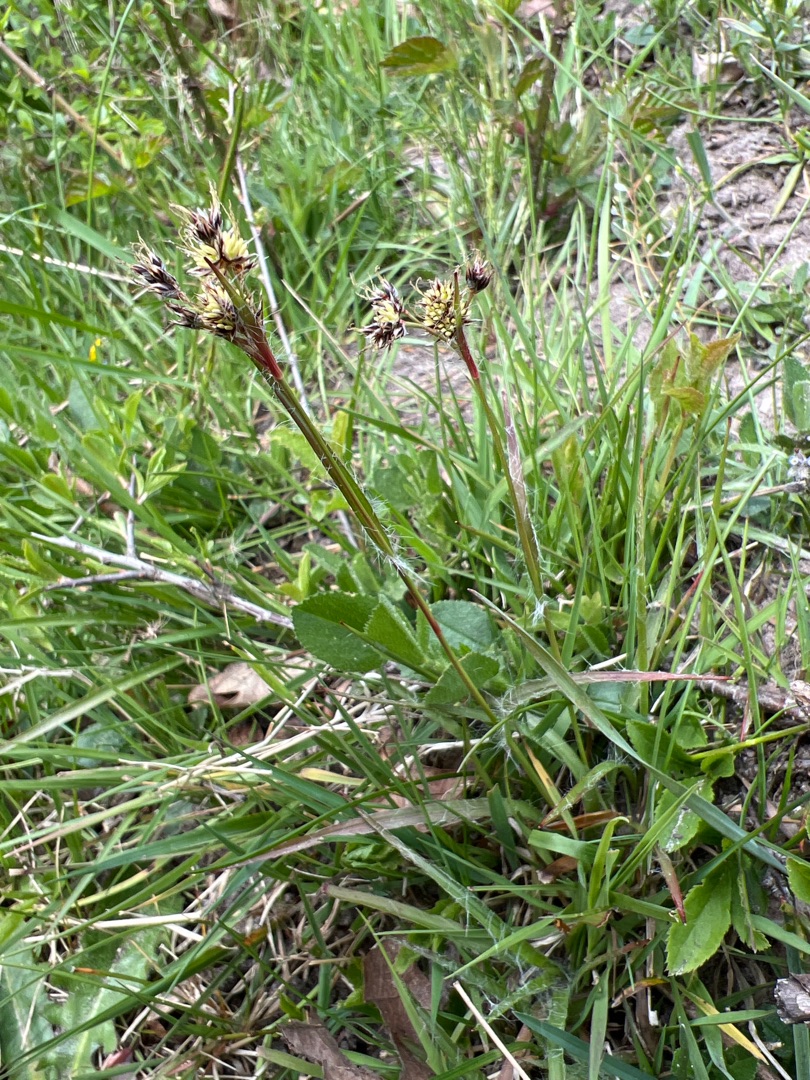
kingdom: Plantae
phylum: Tracheophyta
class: Liliopsida
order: Poales
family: Juncaceae
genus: Luzula
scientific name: Luzula campestris
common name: Mark-frytle
